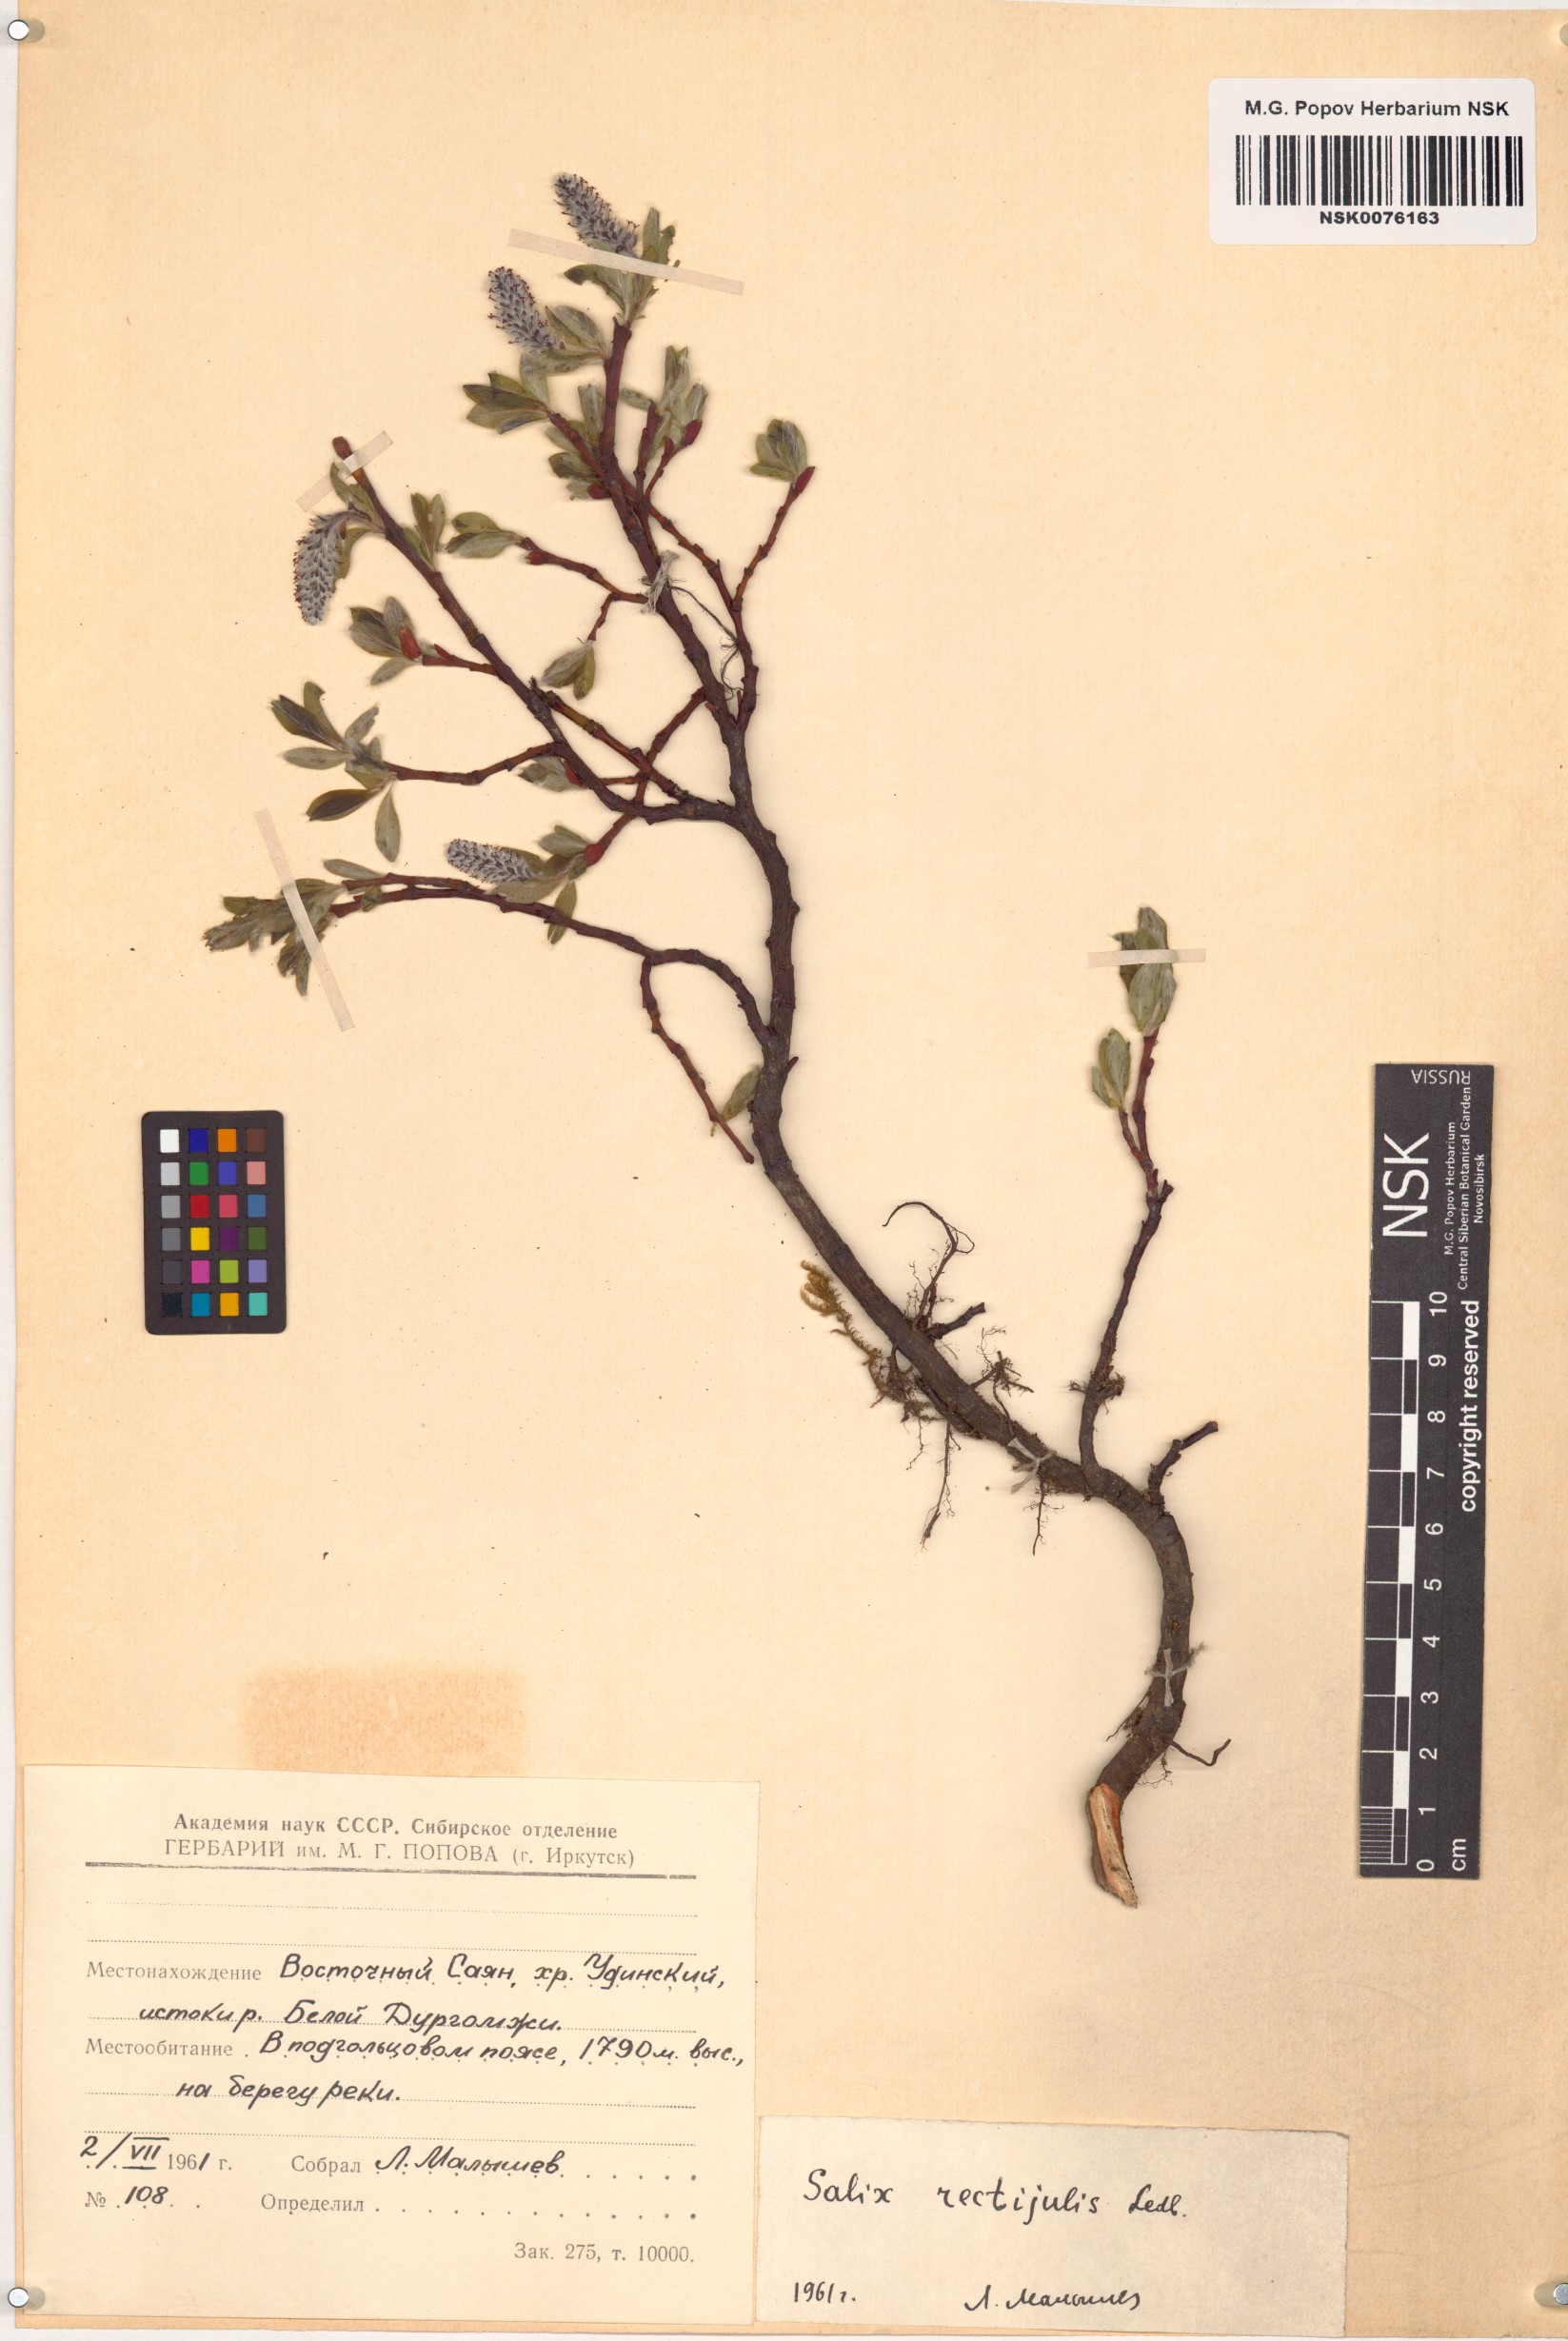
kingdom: Plantae
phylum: Tracheophyta
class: Magnoliopsida
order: Malpighiales
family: Salicaceae
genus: Salix
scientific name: Salix rectijulis
